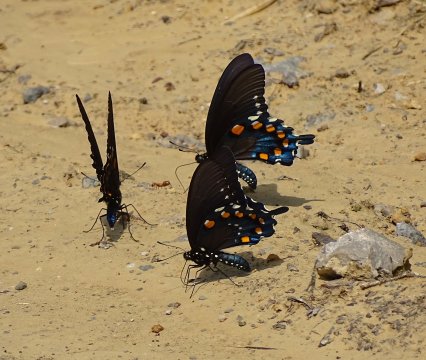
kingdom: Animalia
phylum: Arthropoda
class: Insecta
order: Lepidoptera
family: Papilionidae
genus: Battus
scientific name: Battus philenor
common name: Pipevine Swallowtail
